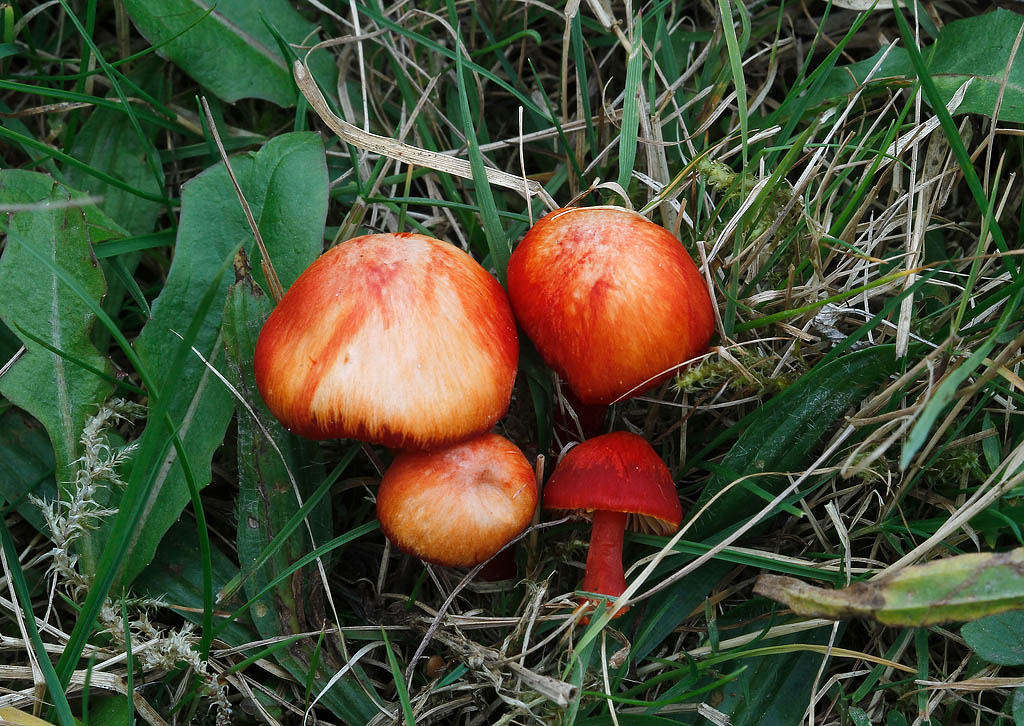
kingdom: Fungi
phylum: Basidiomycota
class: Agaricomycetes
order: Agaricales
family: Hygrophoraceae
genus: Hygrocybe
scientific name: Hygrocybe coccinea
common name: cinnober-vokshat
